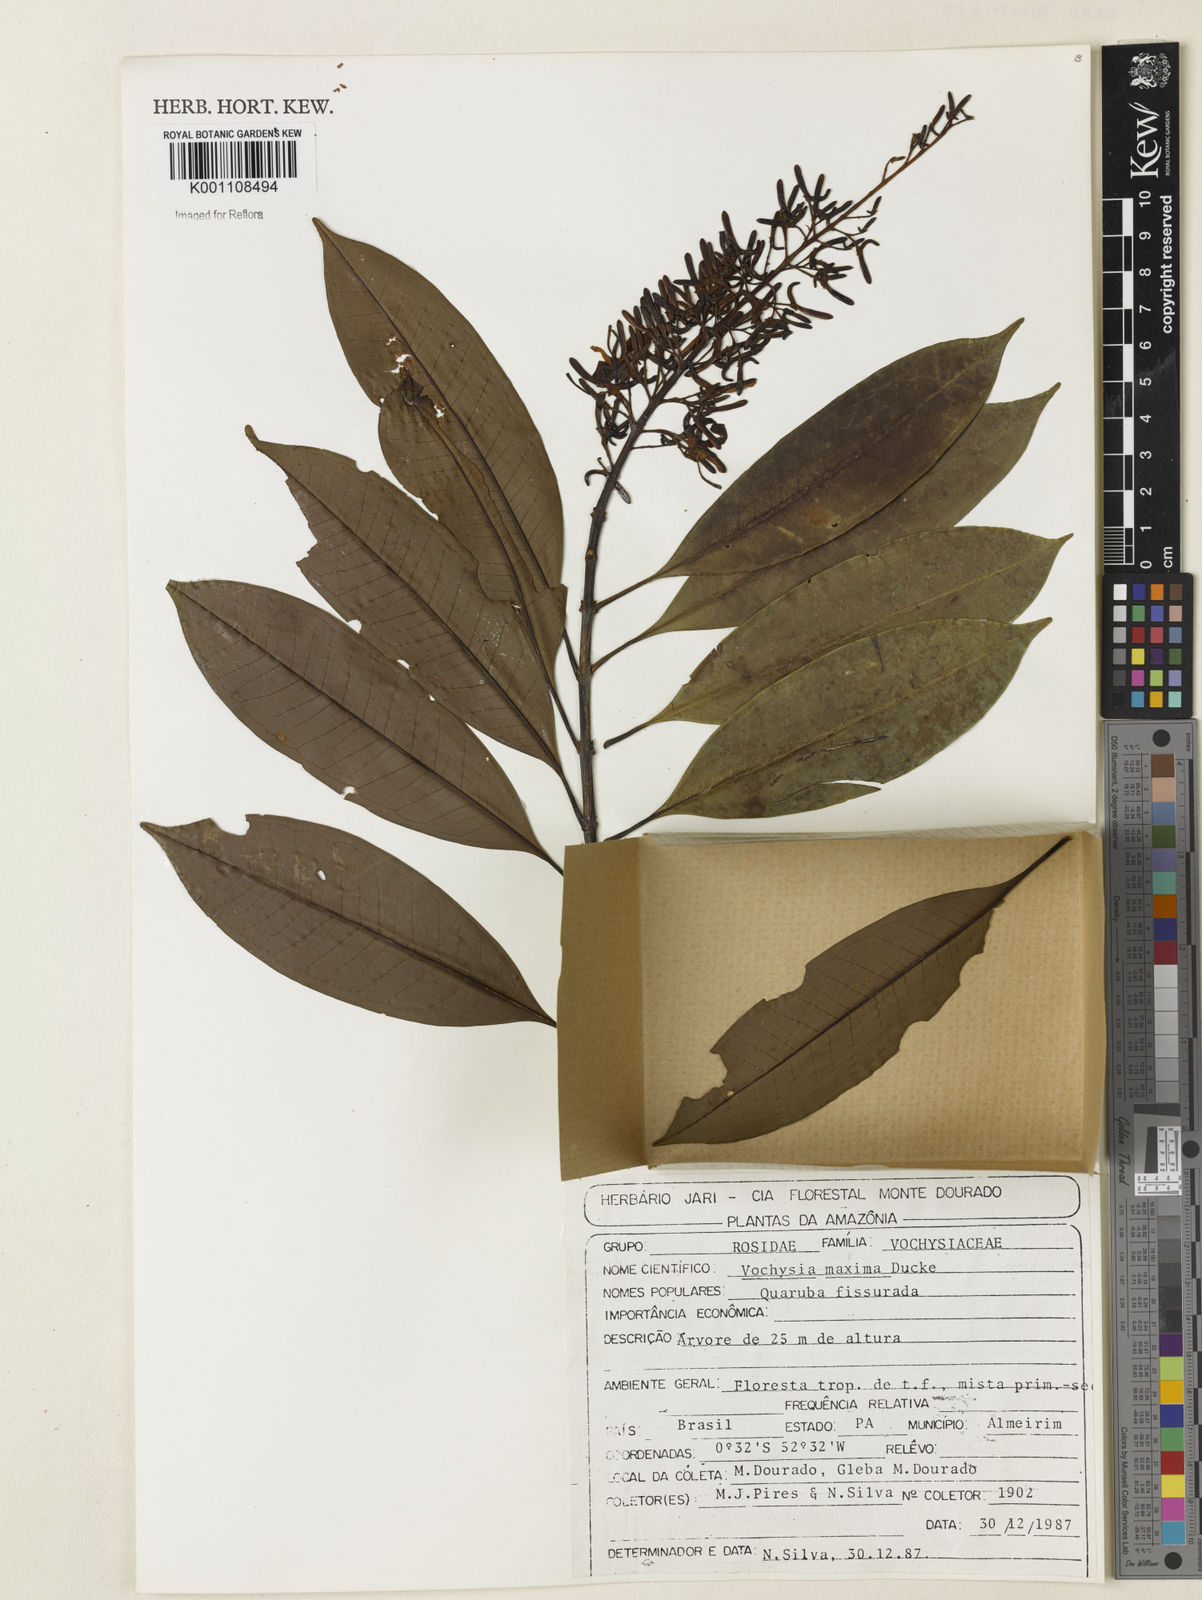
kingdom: Plantae
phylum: Tracheophyta
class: Magnoliopsida
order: Myrtales
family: Vochysiaceae
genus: Vochysia
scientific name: Vochysia maxima
